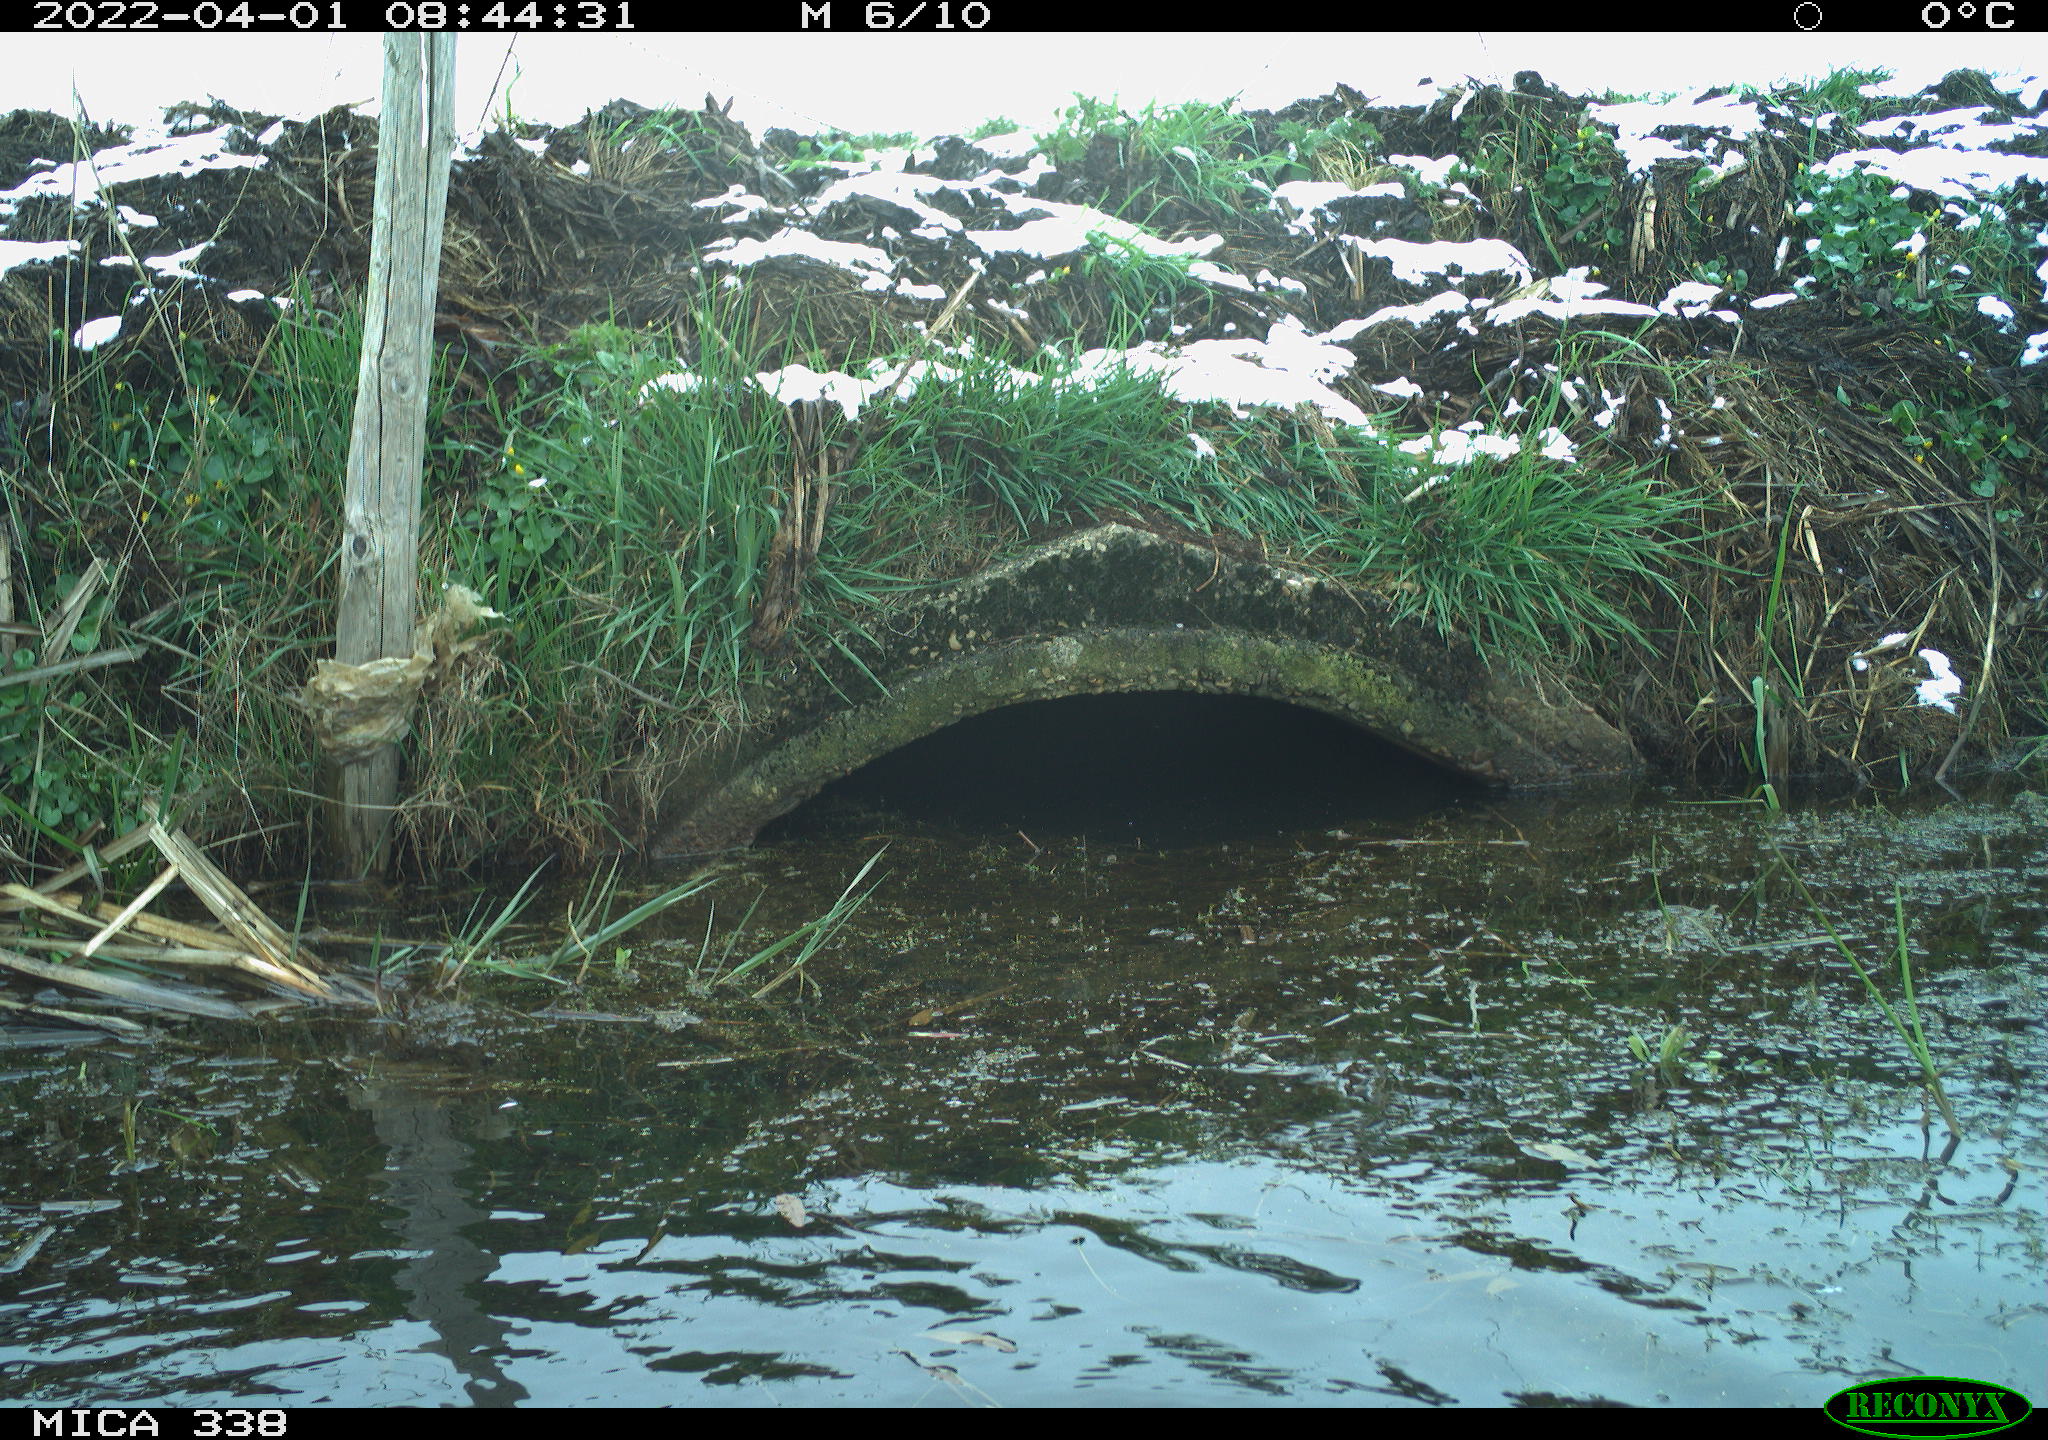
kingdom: Animalia
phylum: Chordata
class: Aves
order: Pelecaniformes
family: Ardeidae
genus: Ardea
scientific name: Ardea alba
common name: Great egret
